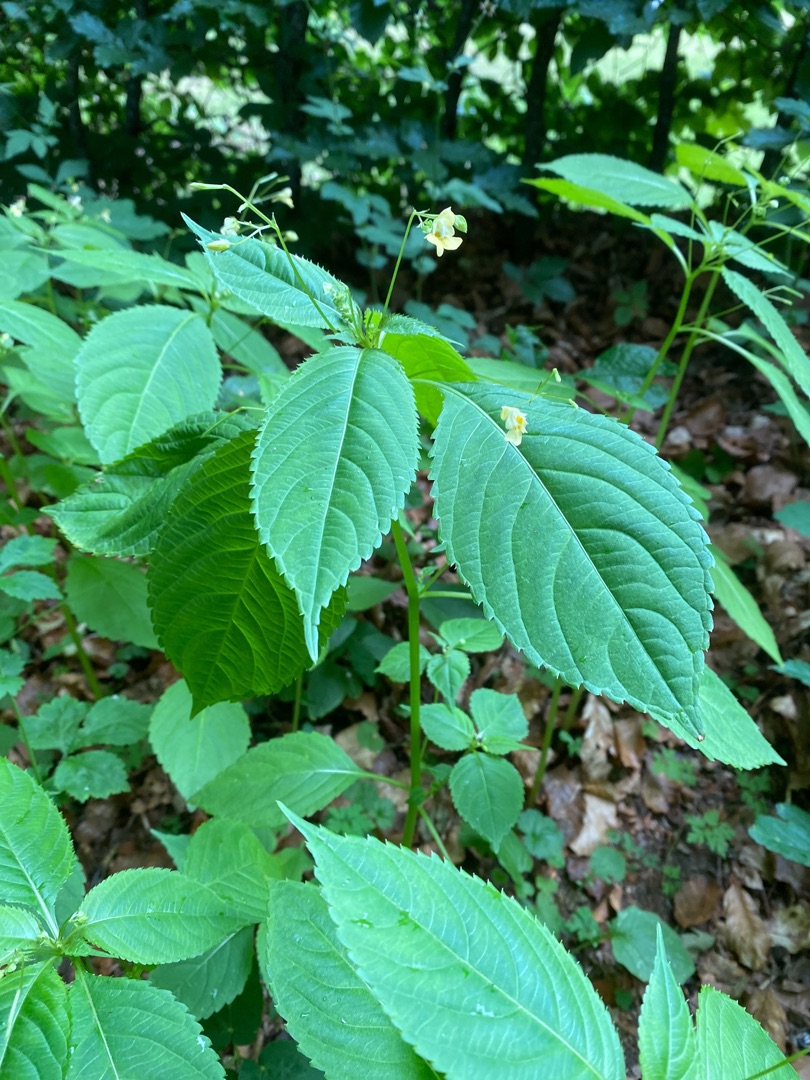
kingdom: Plantae
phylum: Tracheophyta
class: Magnoliopsida
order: Ericales
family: Balsaminaceae
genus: Impatiens
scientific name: Impatiens parviflora
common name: Småblomstret balsamin
